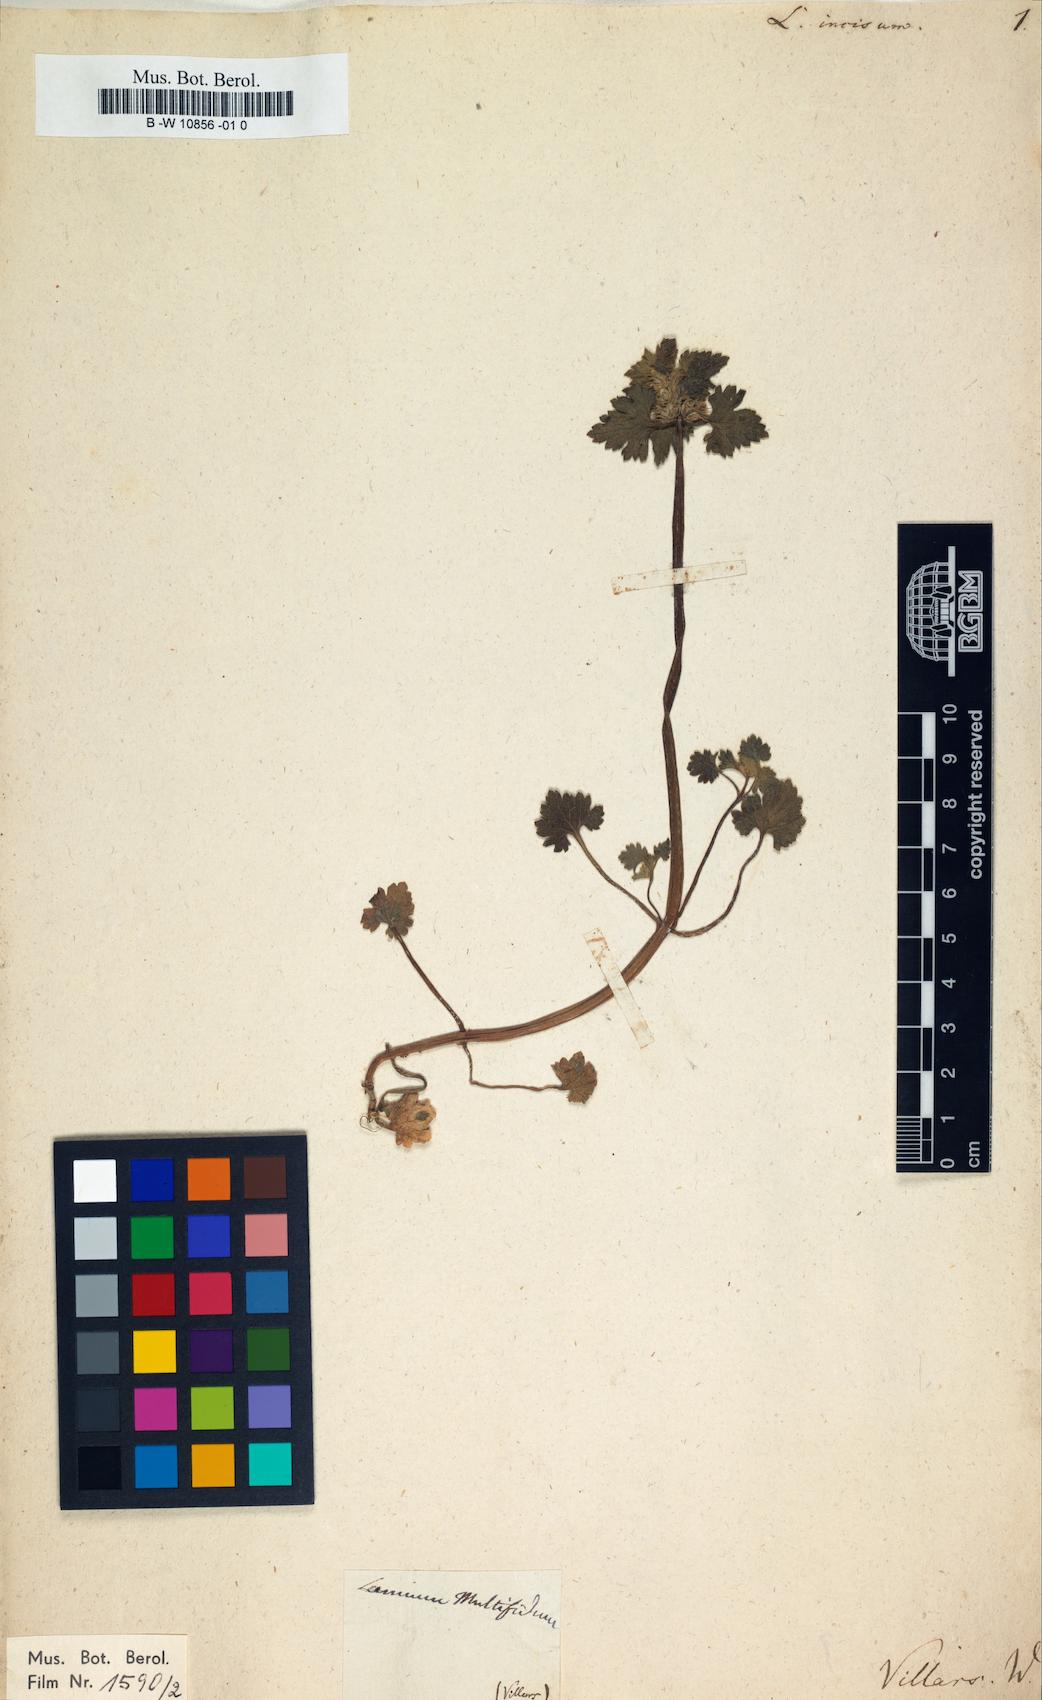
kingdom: Plantae
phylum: Tracheophyta
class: Magnoliopsida
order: Lamiales
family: Lamiaceae
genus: Lamium
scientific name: Lamium purpureum
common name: Red dead-nettle
